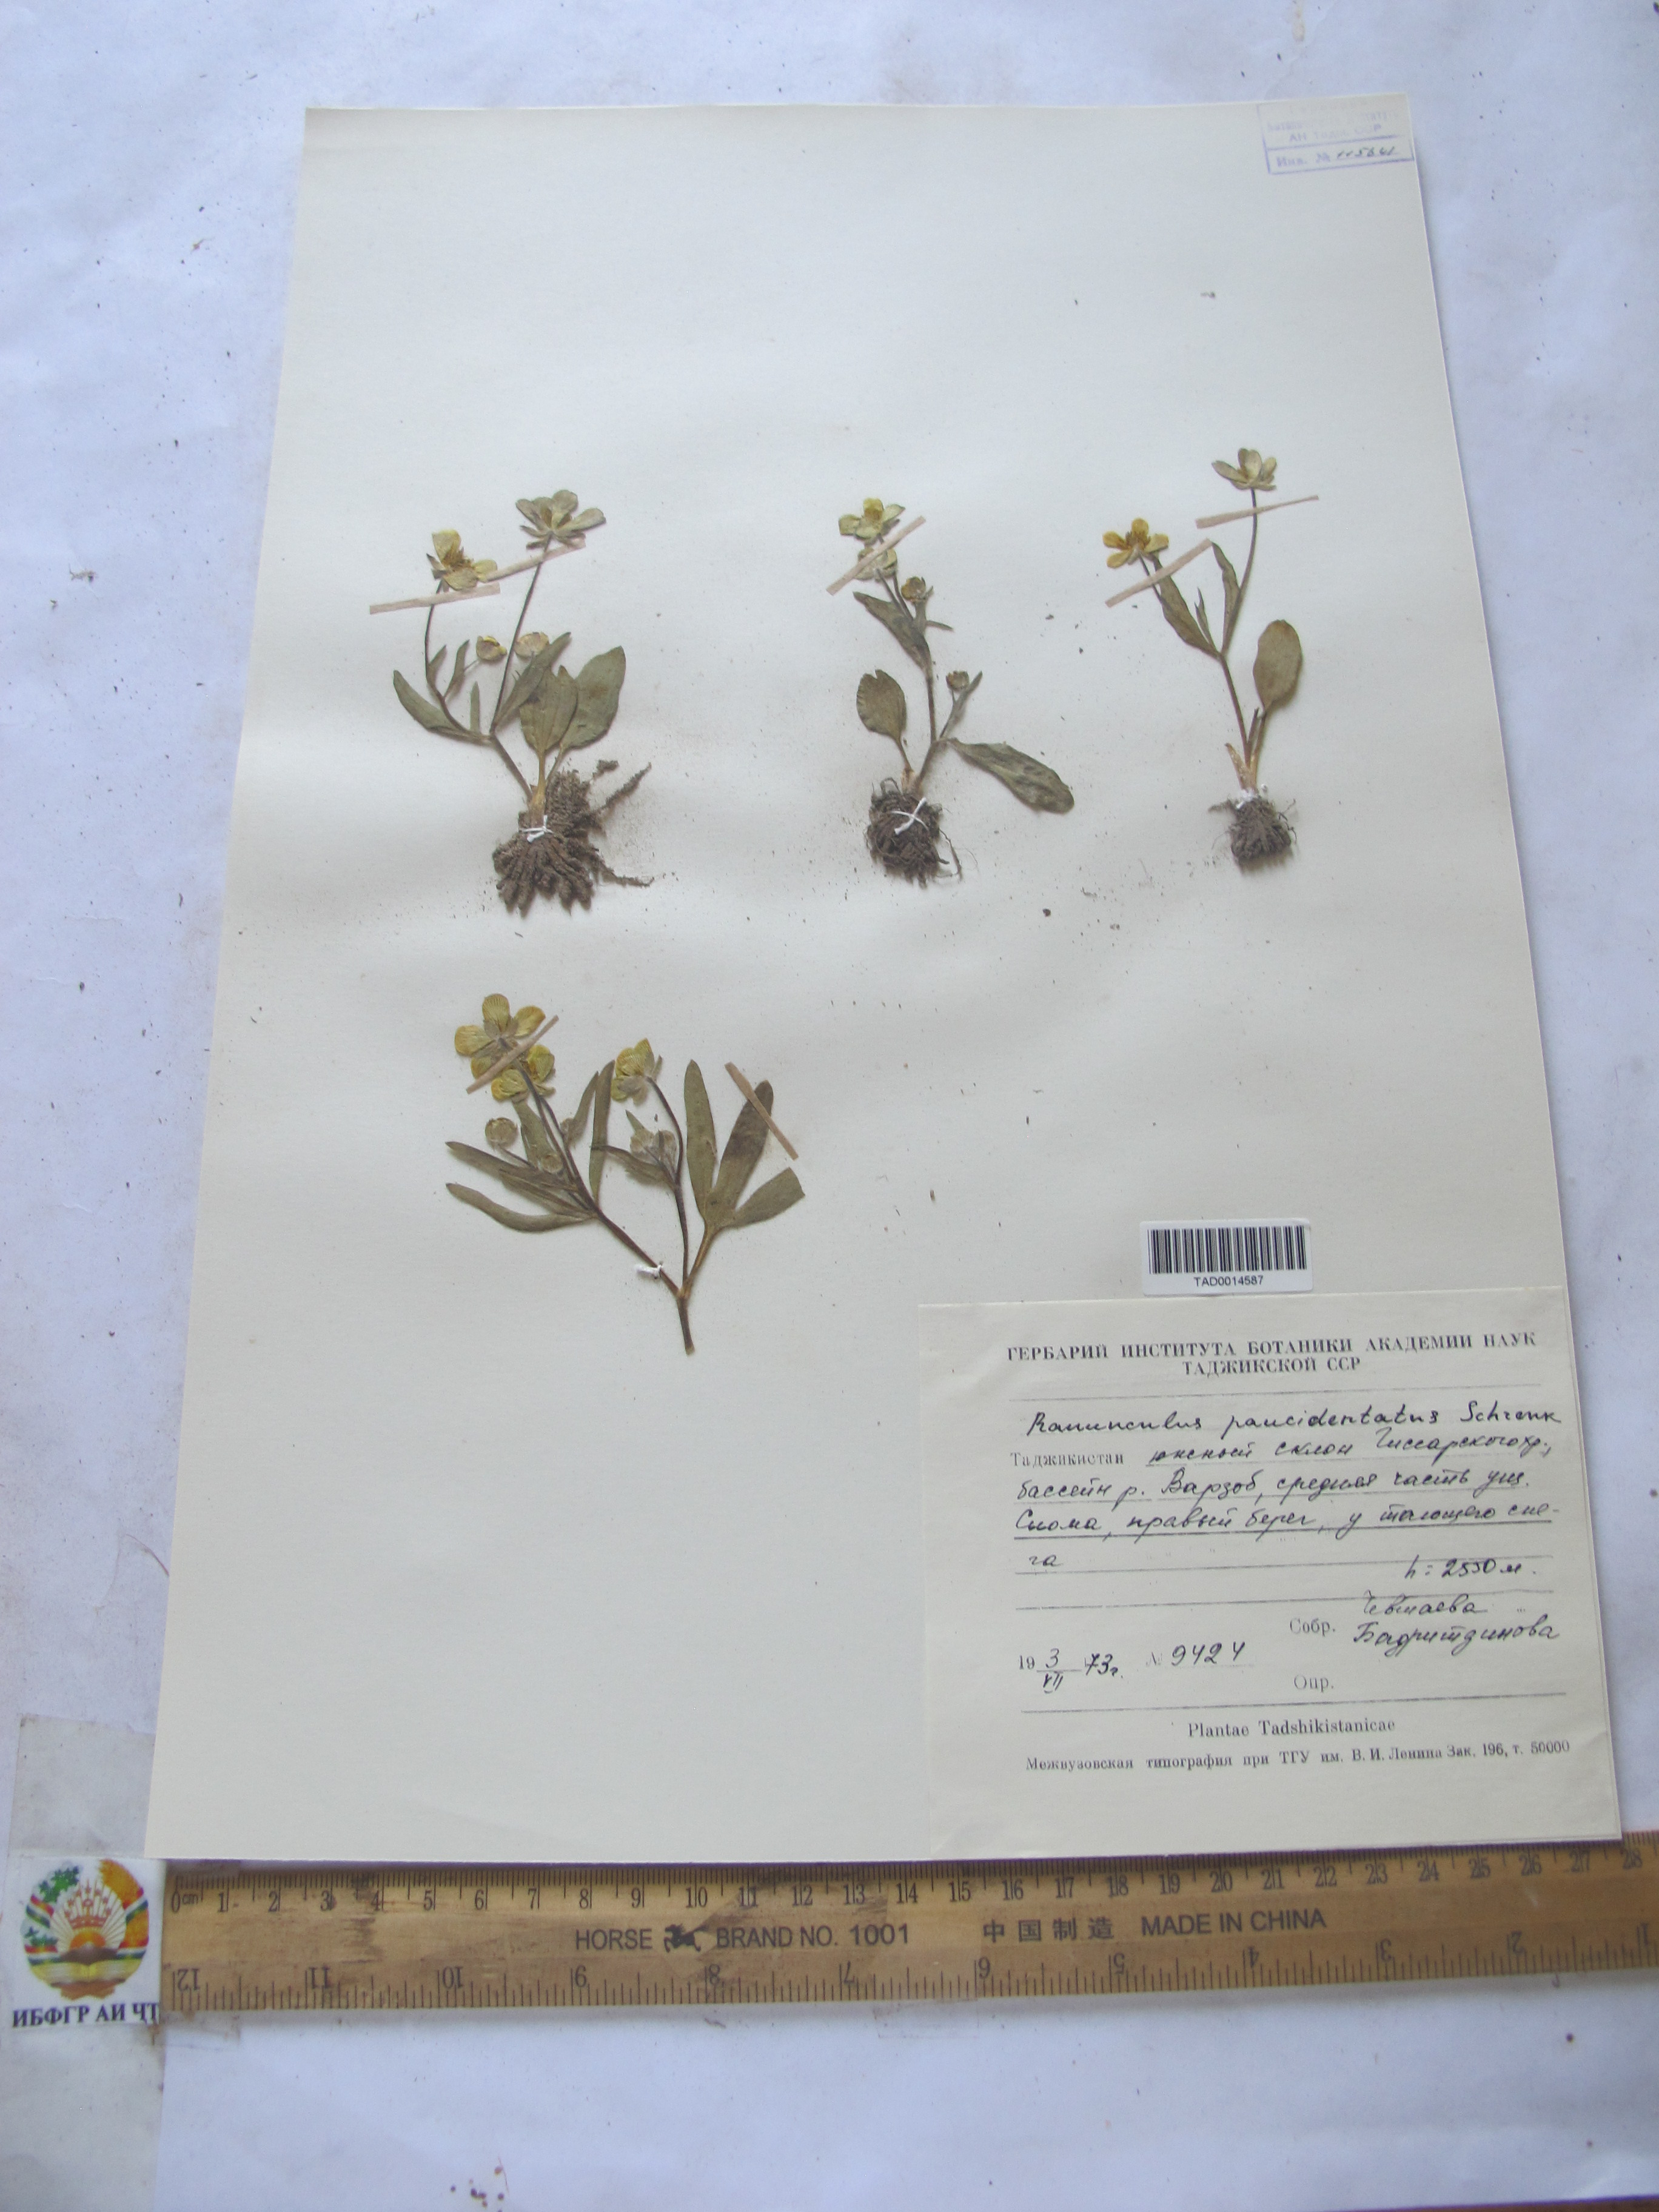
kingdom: Plantae
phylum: Tracheophyta
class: Magnoliopsida
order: Ranunculales
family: Ranunculaceae
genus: Ranunculus
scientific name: Ranunculus paucidentatus
